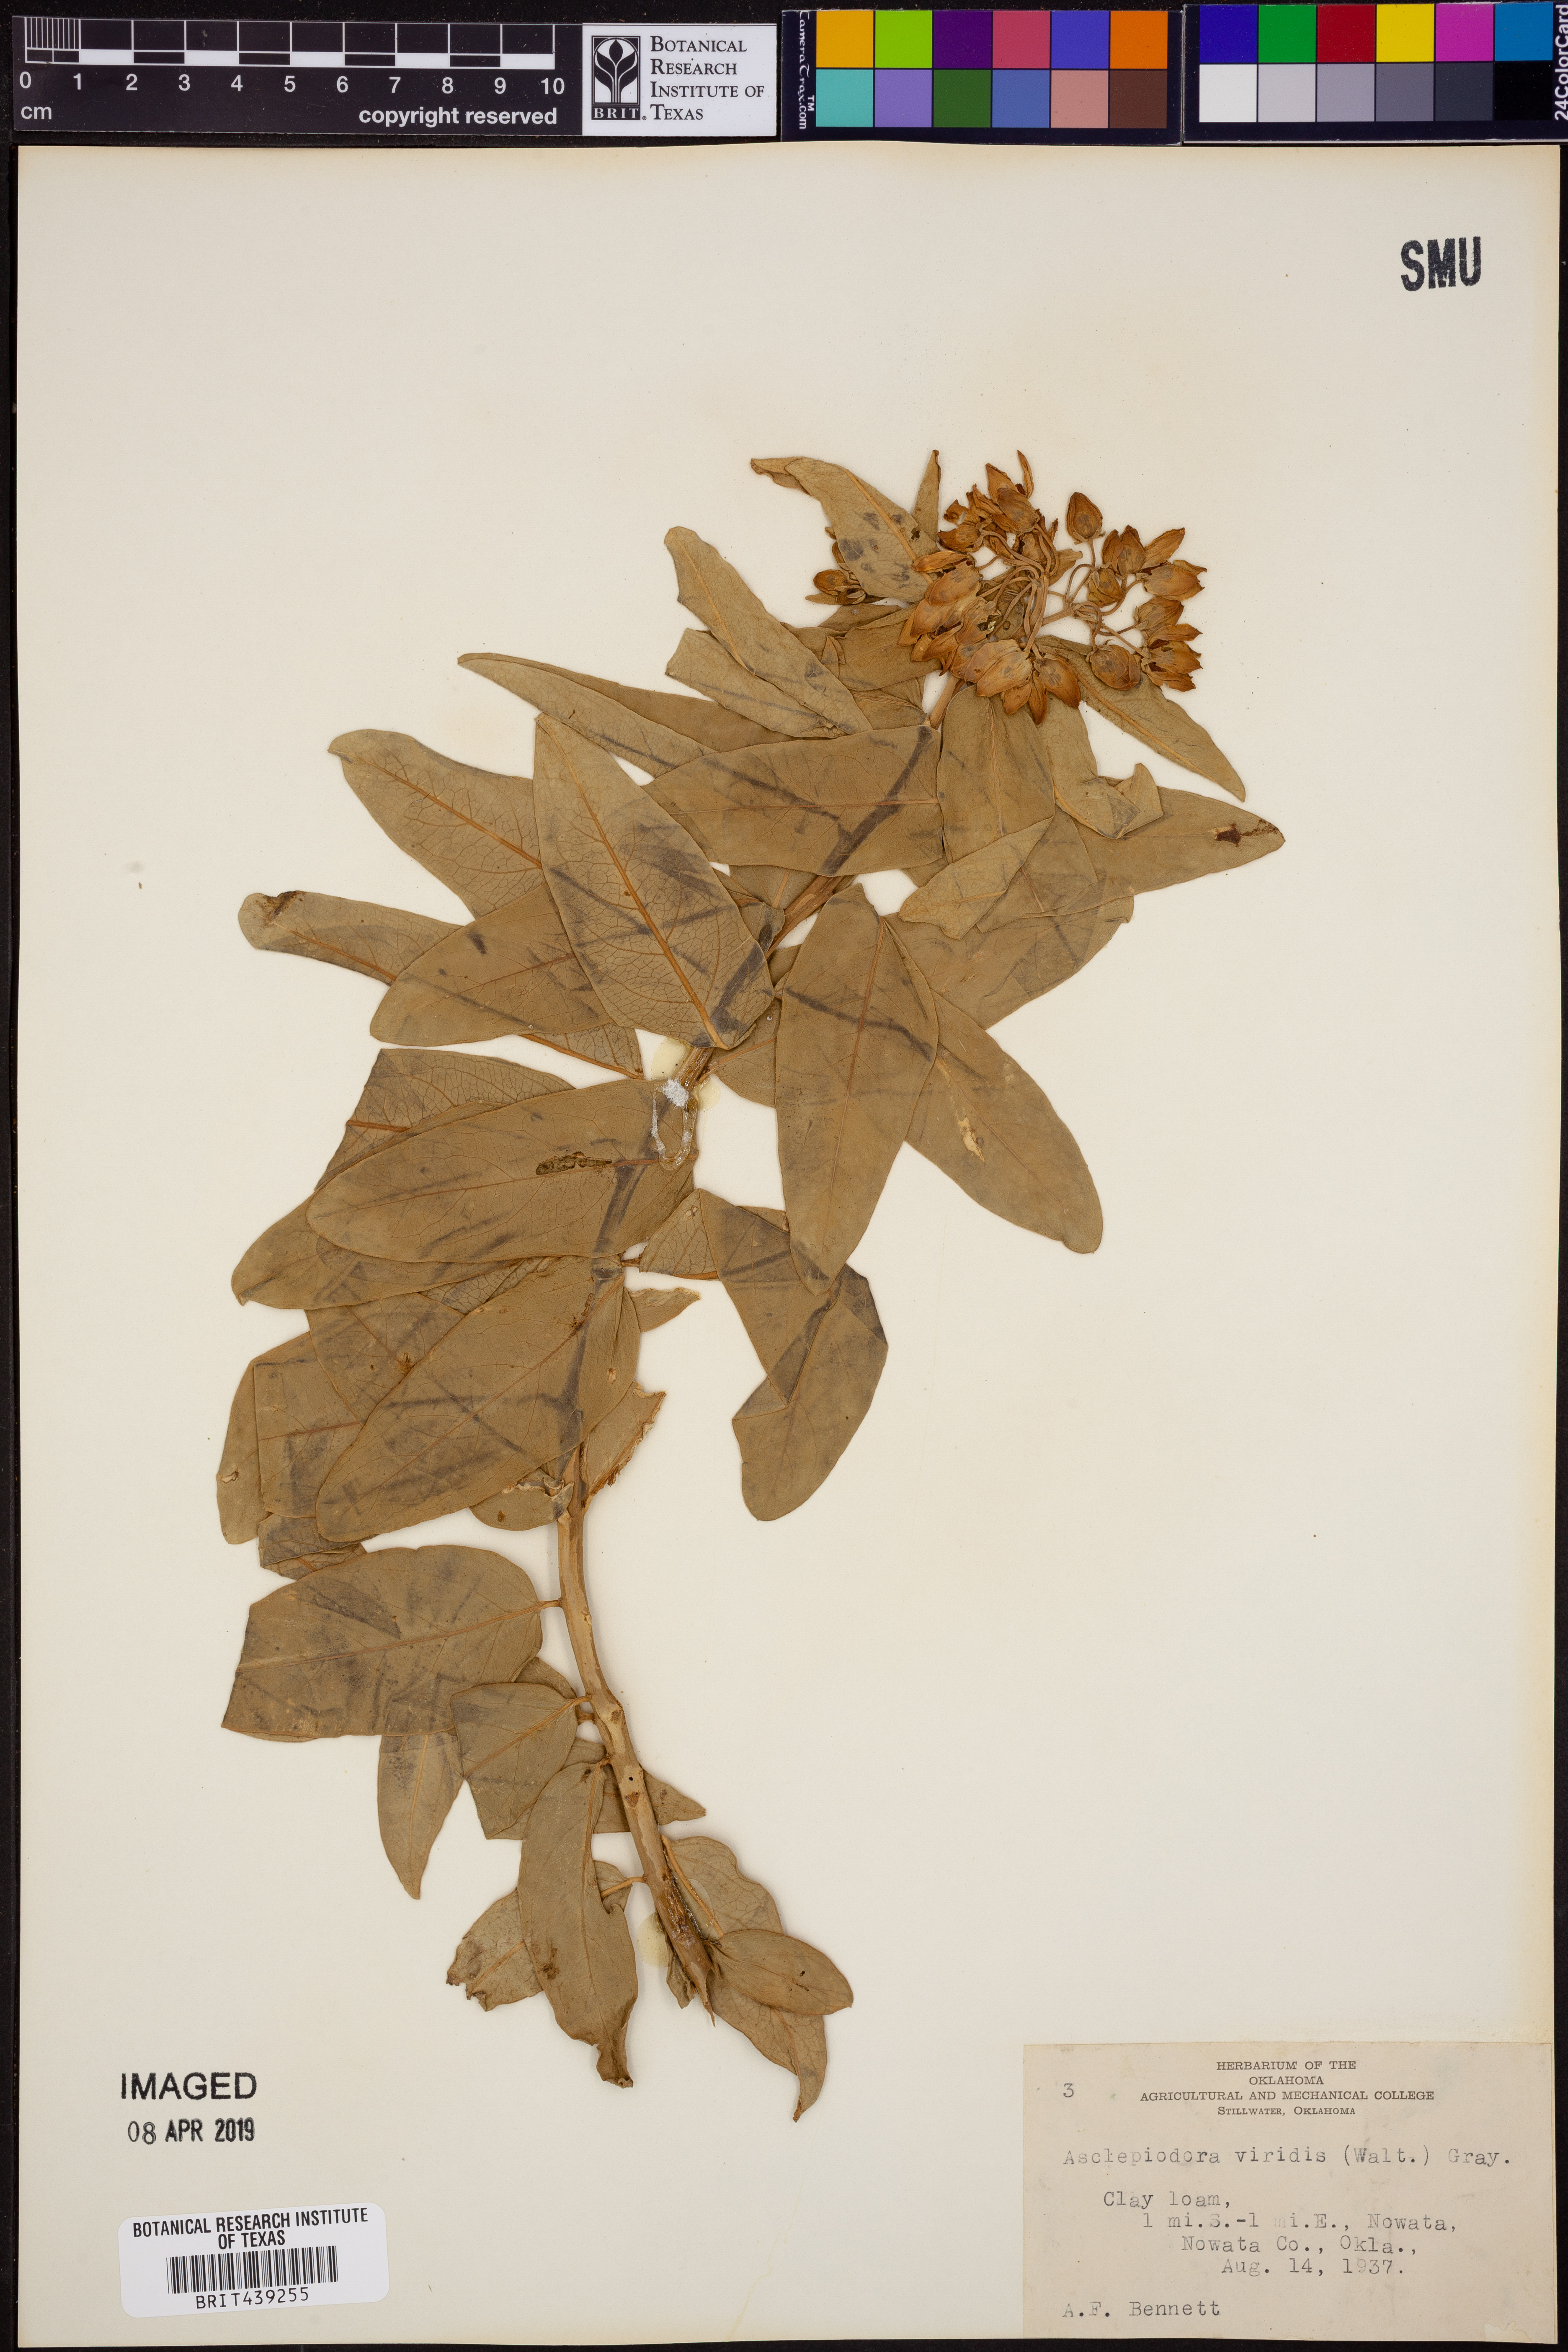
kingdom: Plantae
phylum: Tracheophyta
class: Magnoliopsida
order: Gentianales
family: Apocynaceae
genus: Asclepias
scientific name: Asclepias viridis
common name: Antelope-horns
